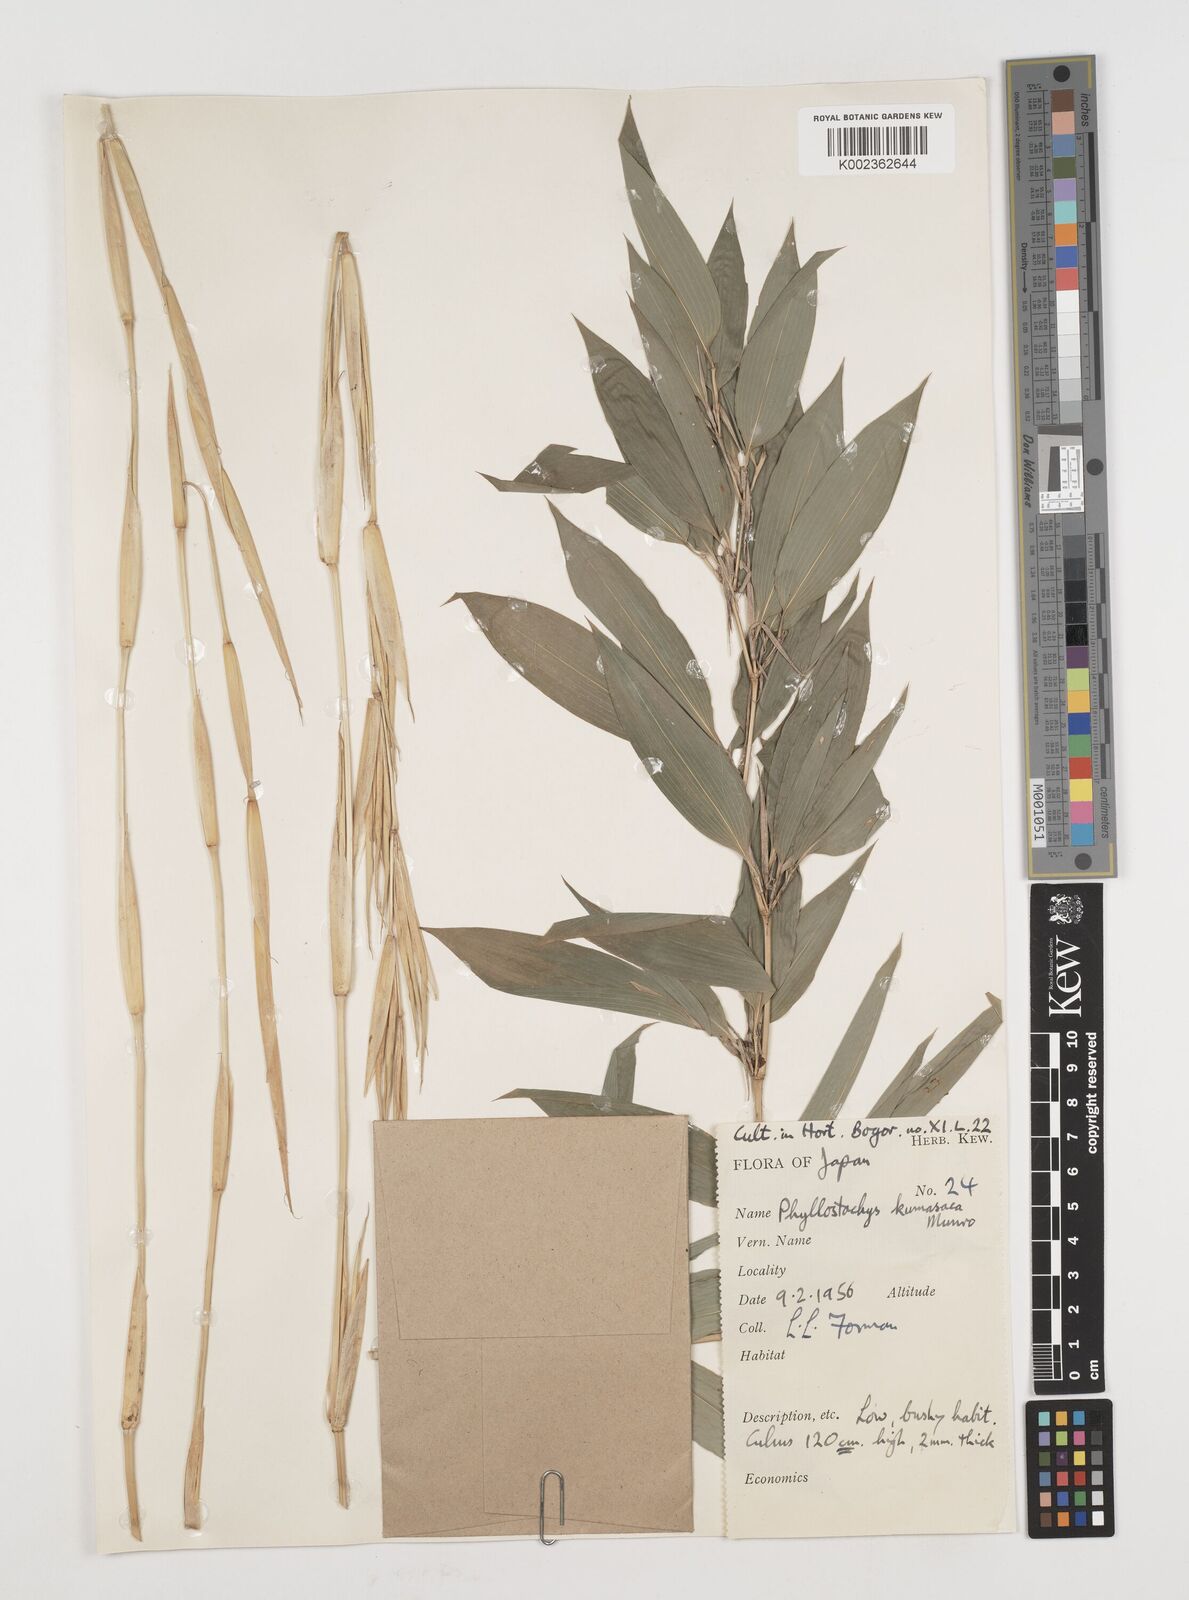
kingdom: Plantae
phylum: Tracheophyta
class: Liliopsida
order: Poales
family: Poaceae
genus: Shibataea
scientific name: Shibataea kumasasa
